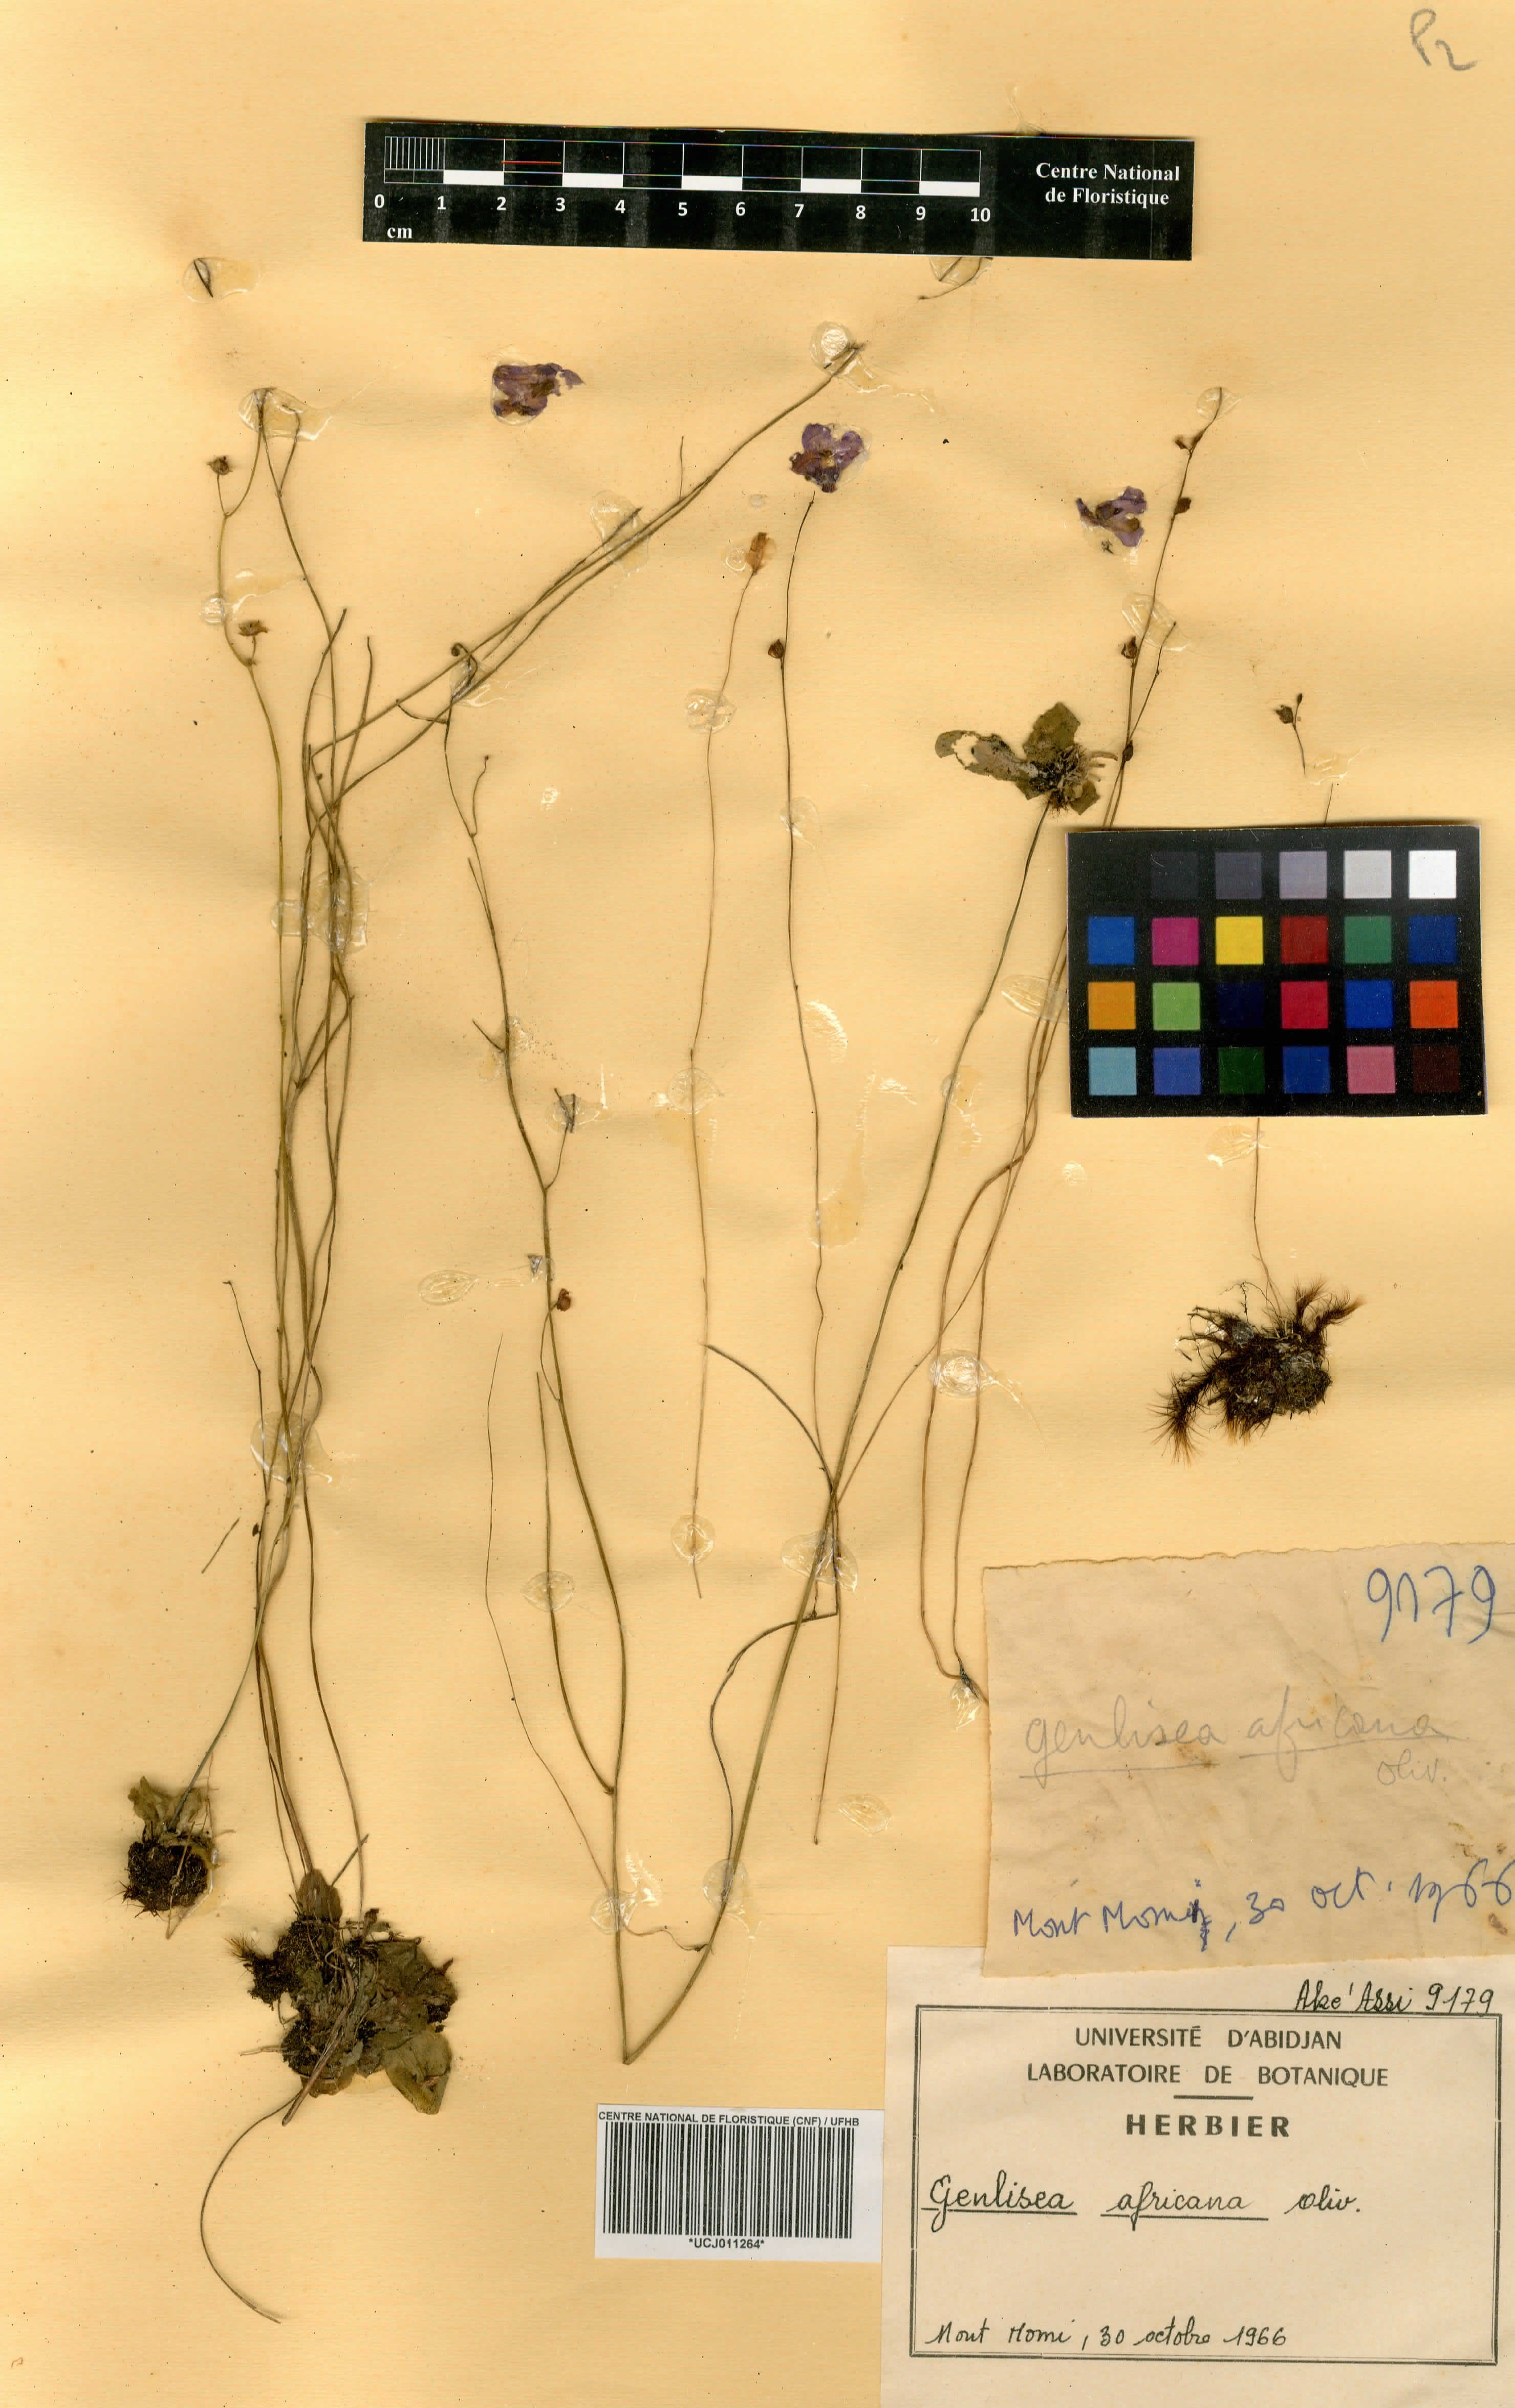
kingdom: Plantae
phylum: Tracheophyta
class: Magnoliopsida
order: Lamiales
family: Lentibulariaceae
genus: Utricularia
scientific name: Utricularia arenaria
